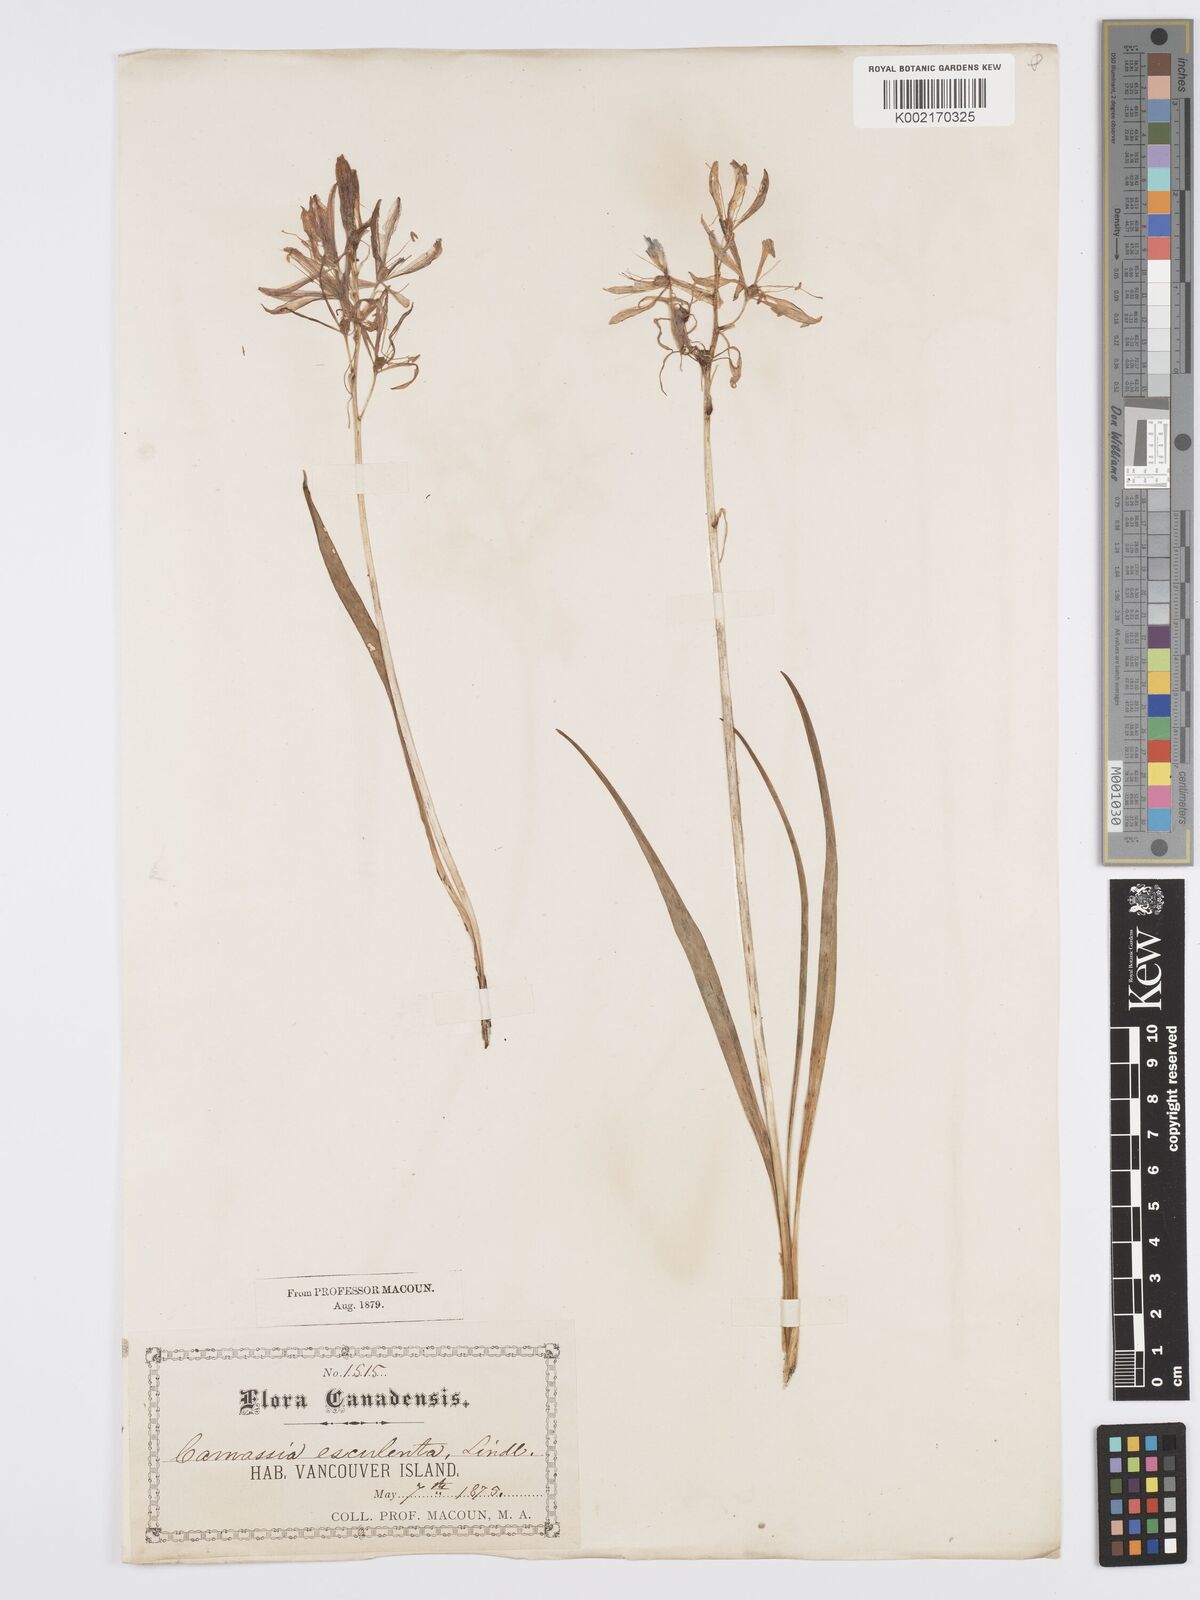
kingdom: Plantae
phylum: Tracheophyta
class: Liliopsida
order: Asparagales
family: Asparagaceae
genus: Camassia
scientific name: Camassia quamash
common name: Common camas
